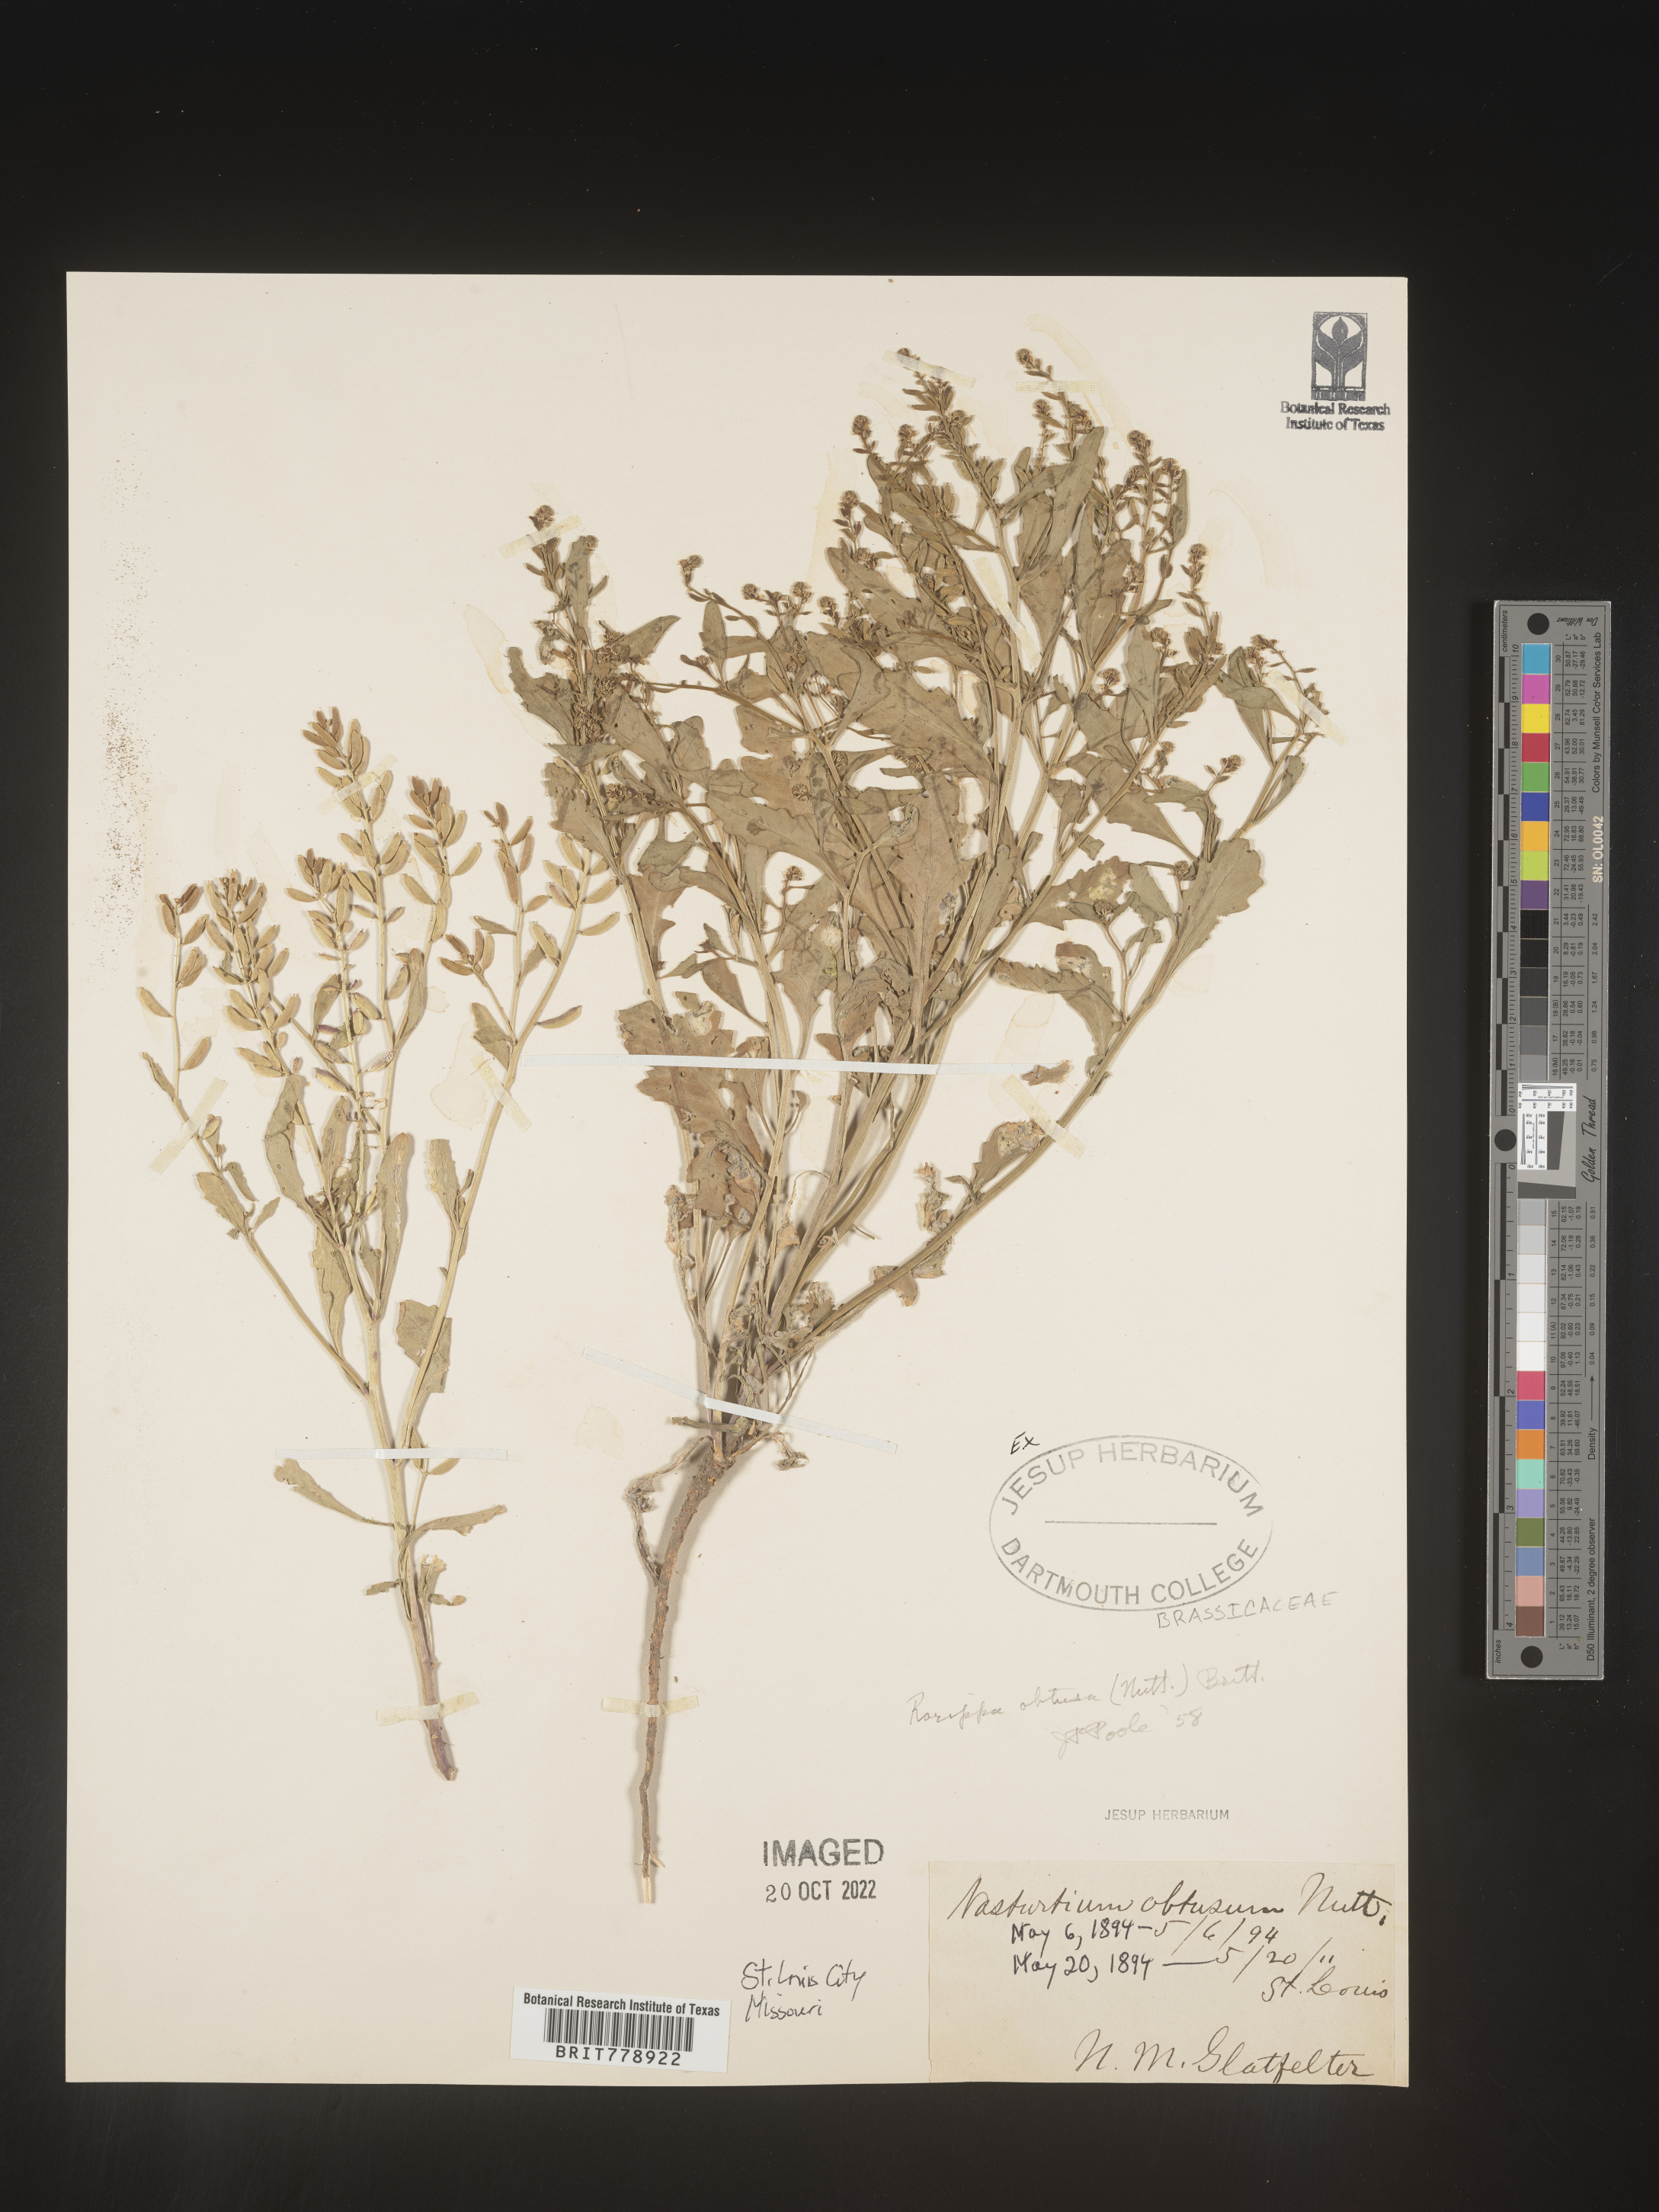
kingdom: Plantae
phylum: Tracheophyta
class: Magnoliopsida
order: Brassicales
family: Brassicaceae
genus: Rorippa
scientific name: Rorippa teres
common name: Southern marsh yellowcress
